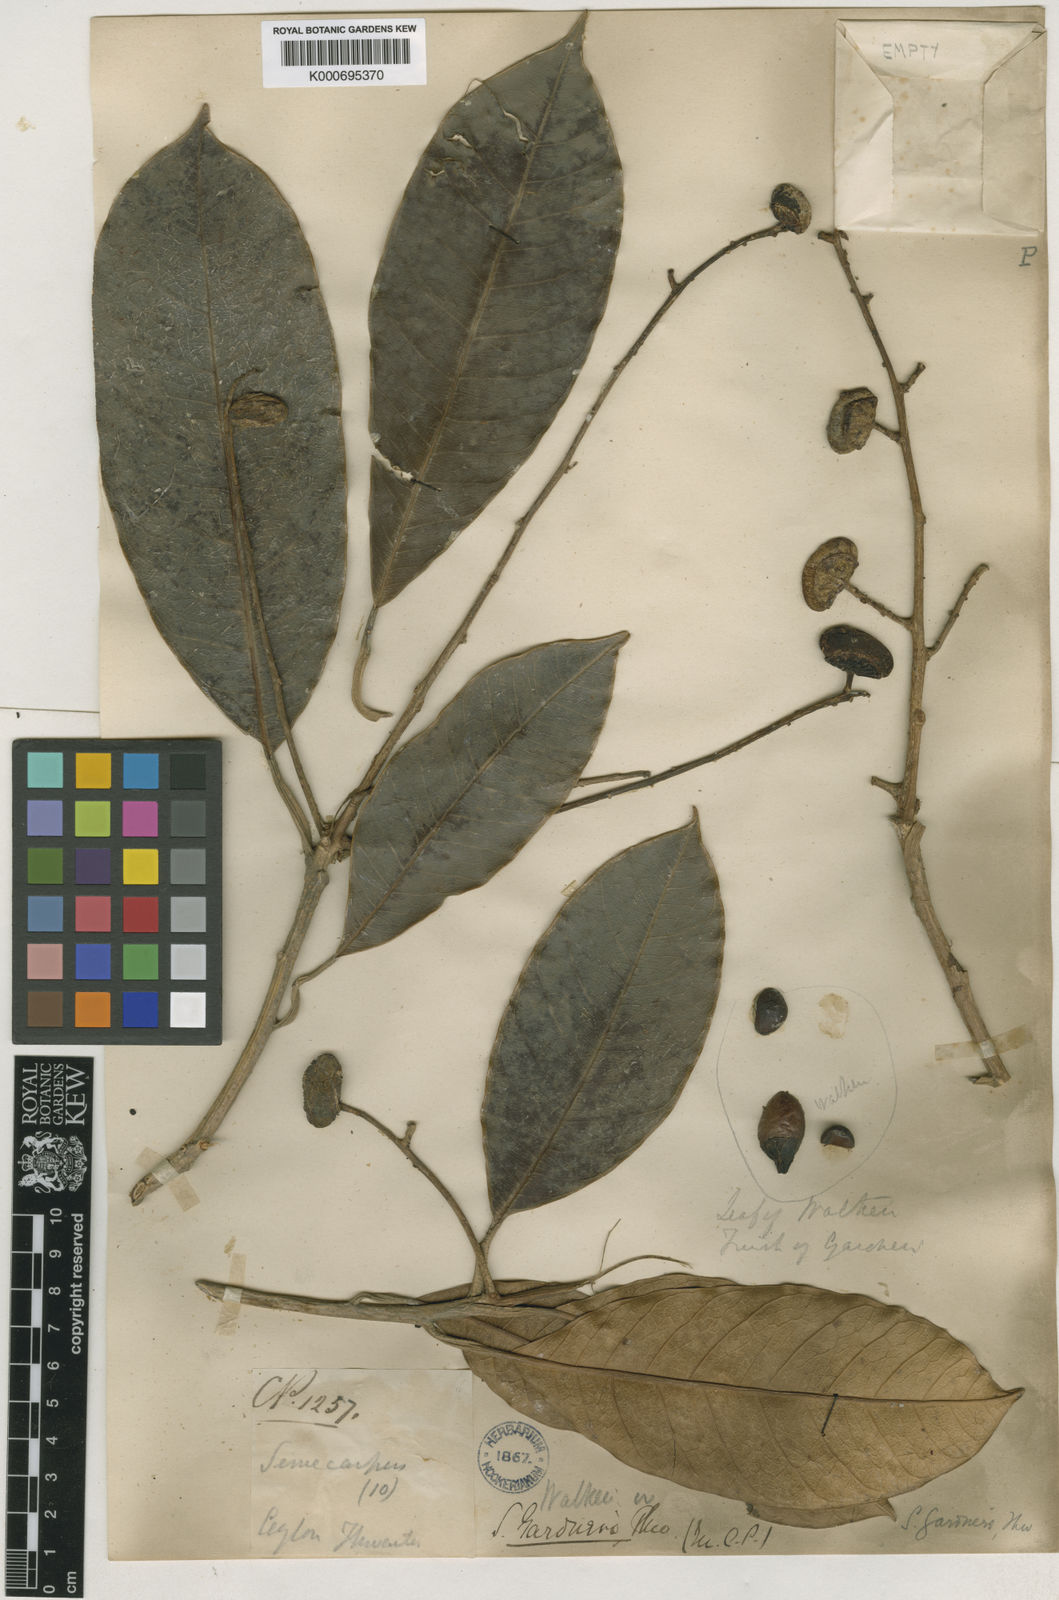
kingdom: Plantae
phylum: Tracheophyta
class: Magnoliopsida
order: Sapindales
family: Anacardiaceae
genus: Semecarpus
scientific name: Semecarpus gardneri
